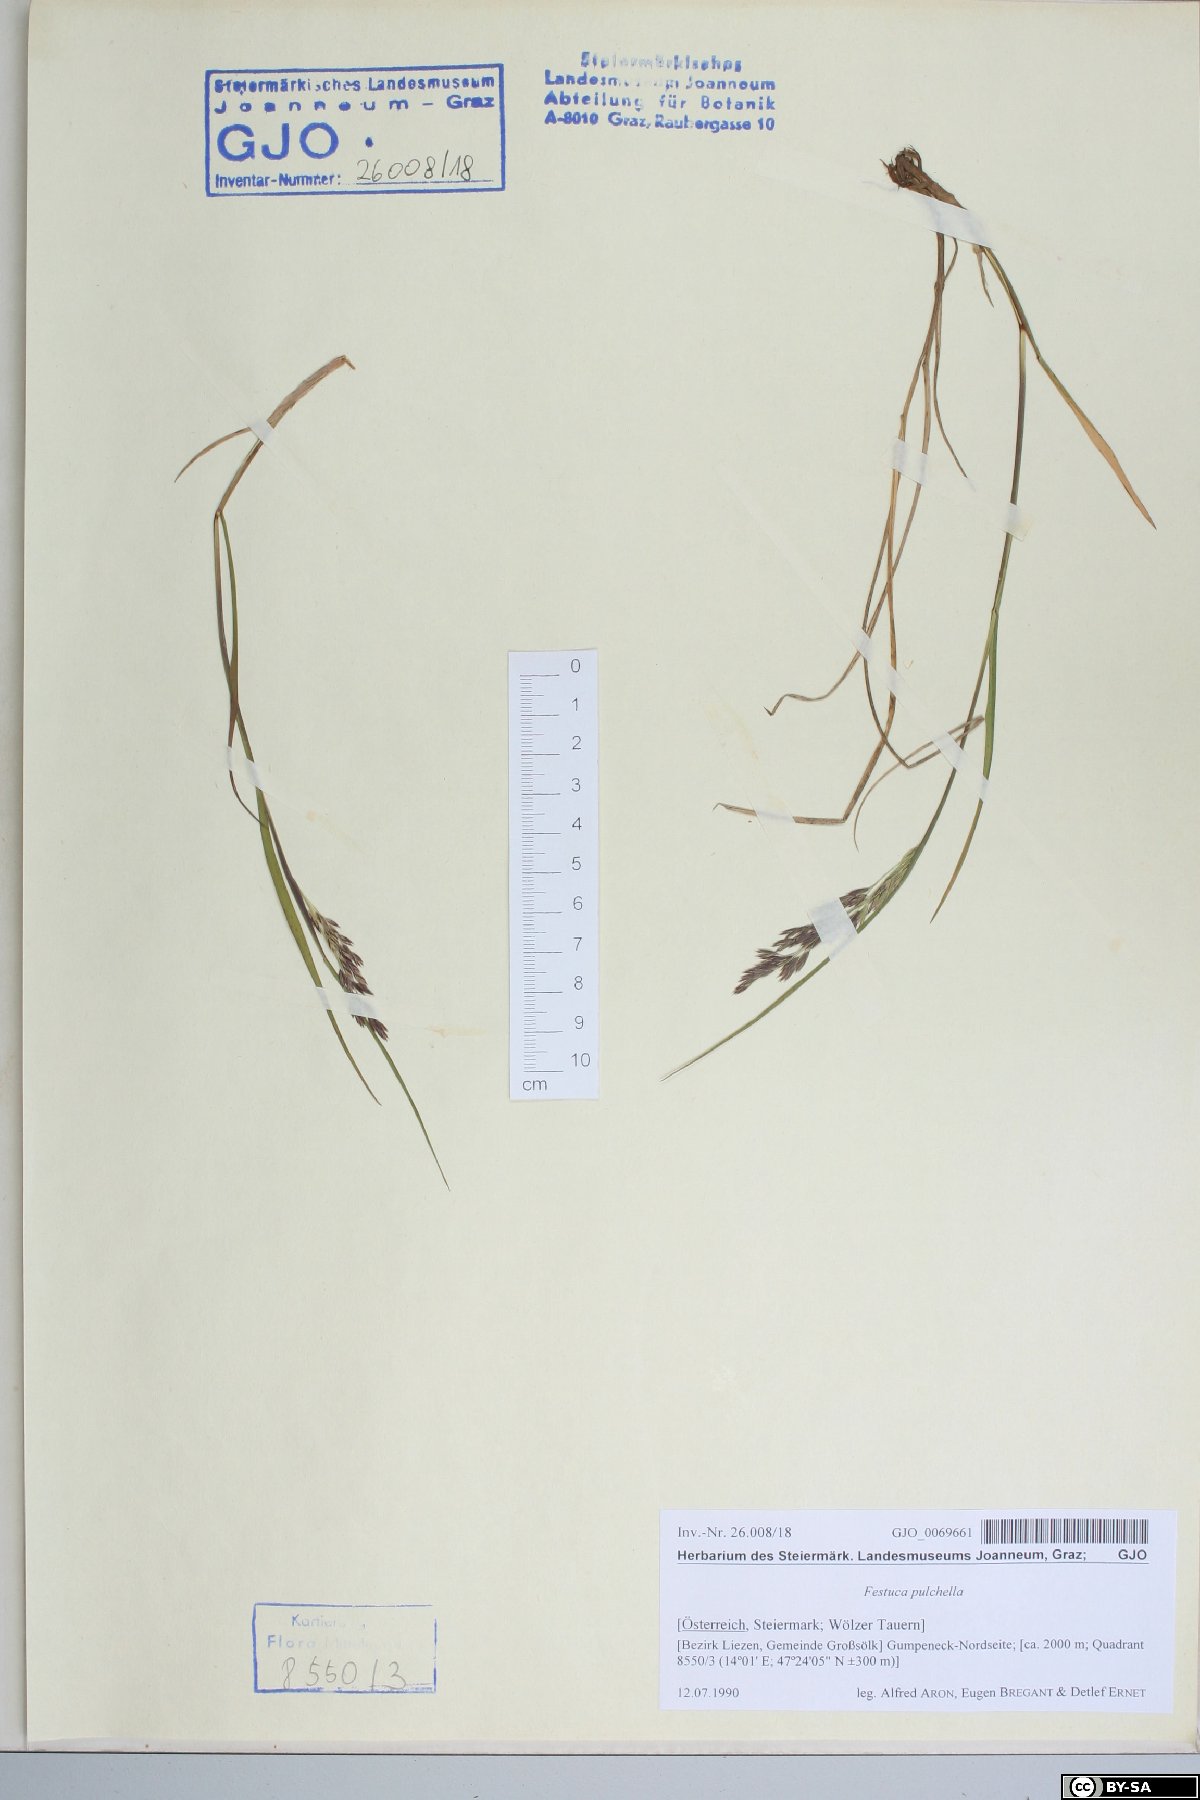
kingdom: Plantae
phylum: Tracheophyta
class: Liliopsida
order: Poales
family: Poaceae
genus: Festuca
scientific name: Festuca pulchella
